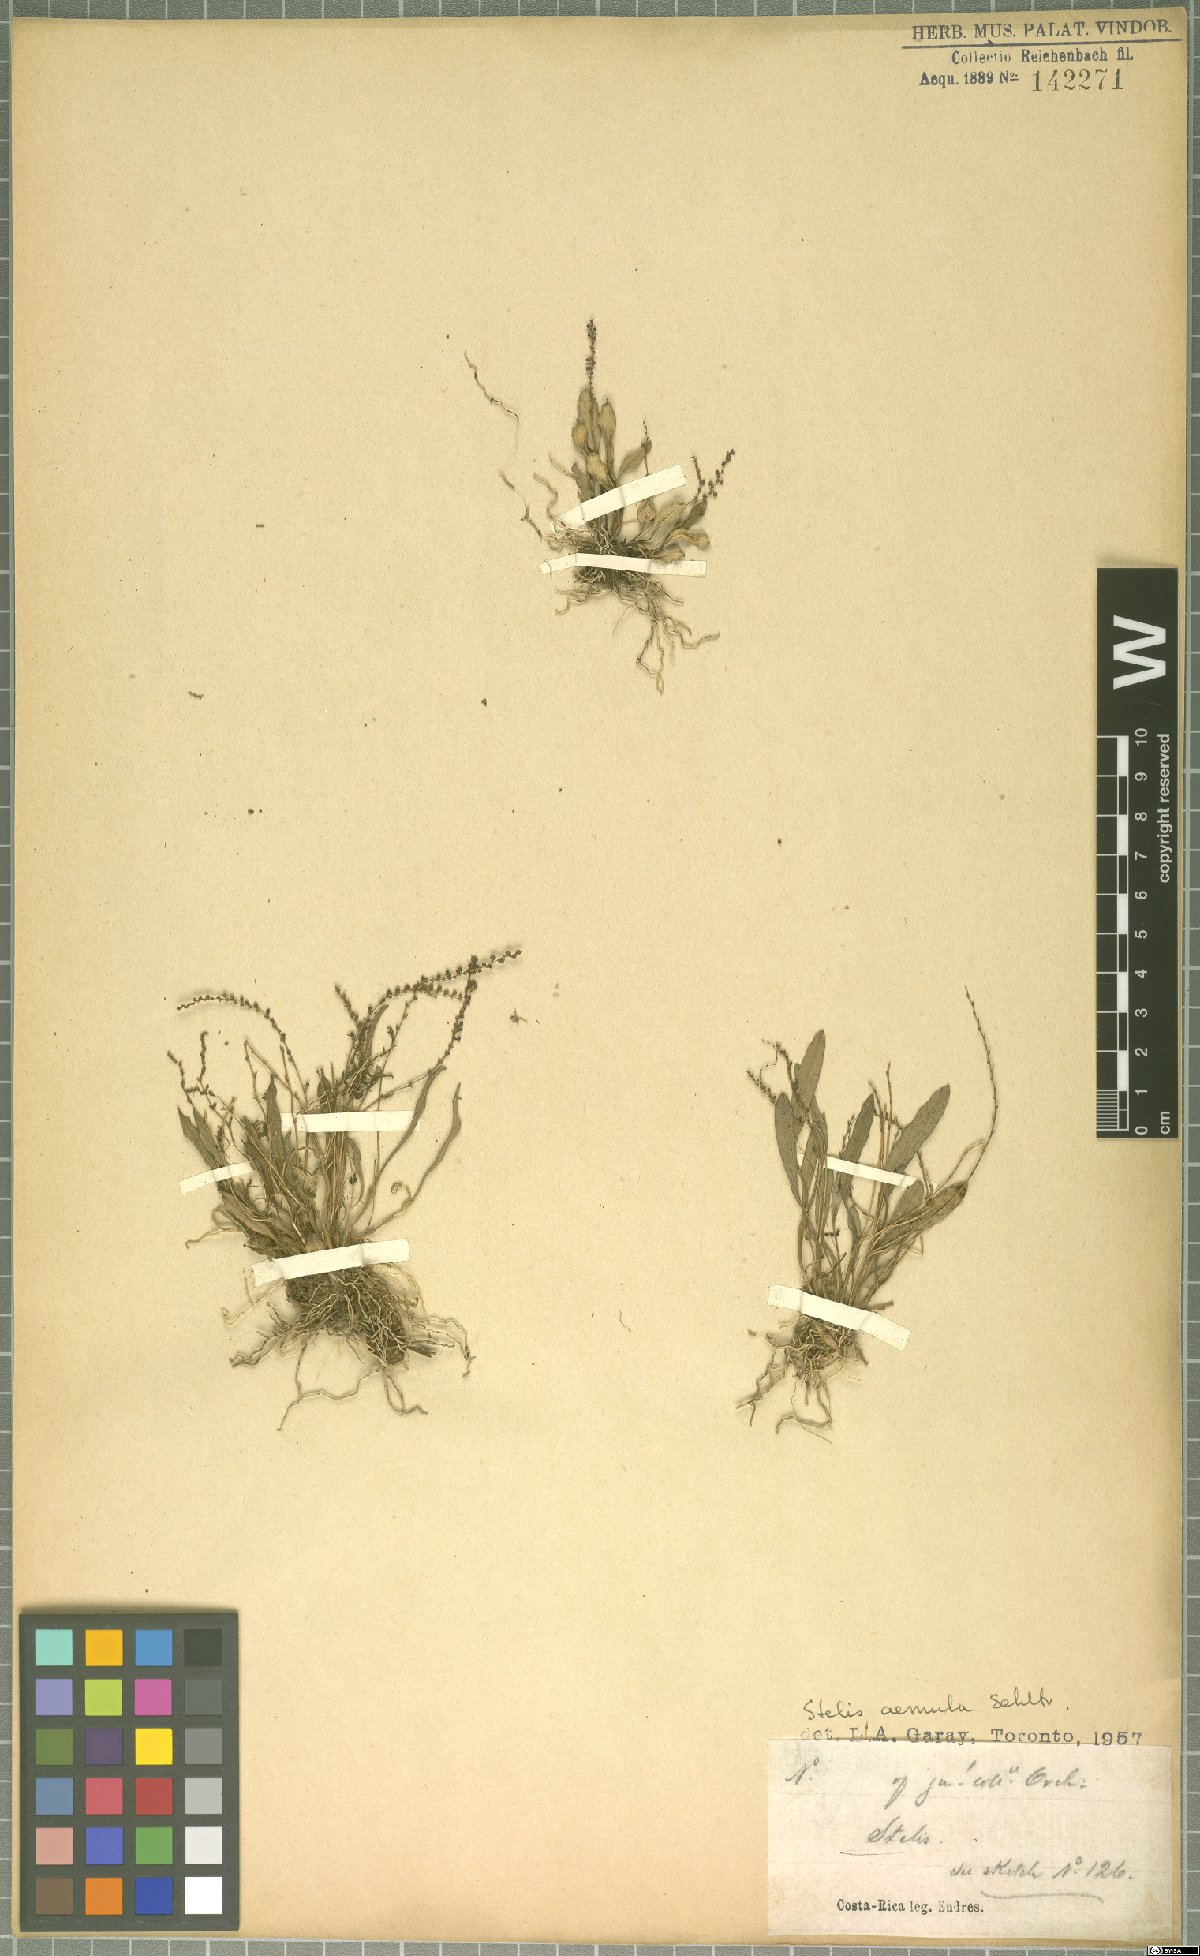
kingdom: Plantae
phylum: Tracheophyta
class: Liliopsida
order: Asparagales
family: Orchidaceae
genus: Stelis
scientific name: Stelis aemula
